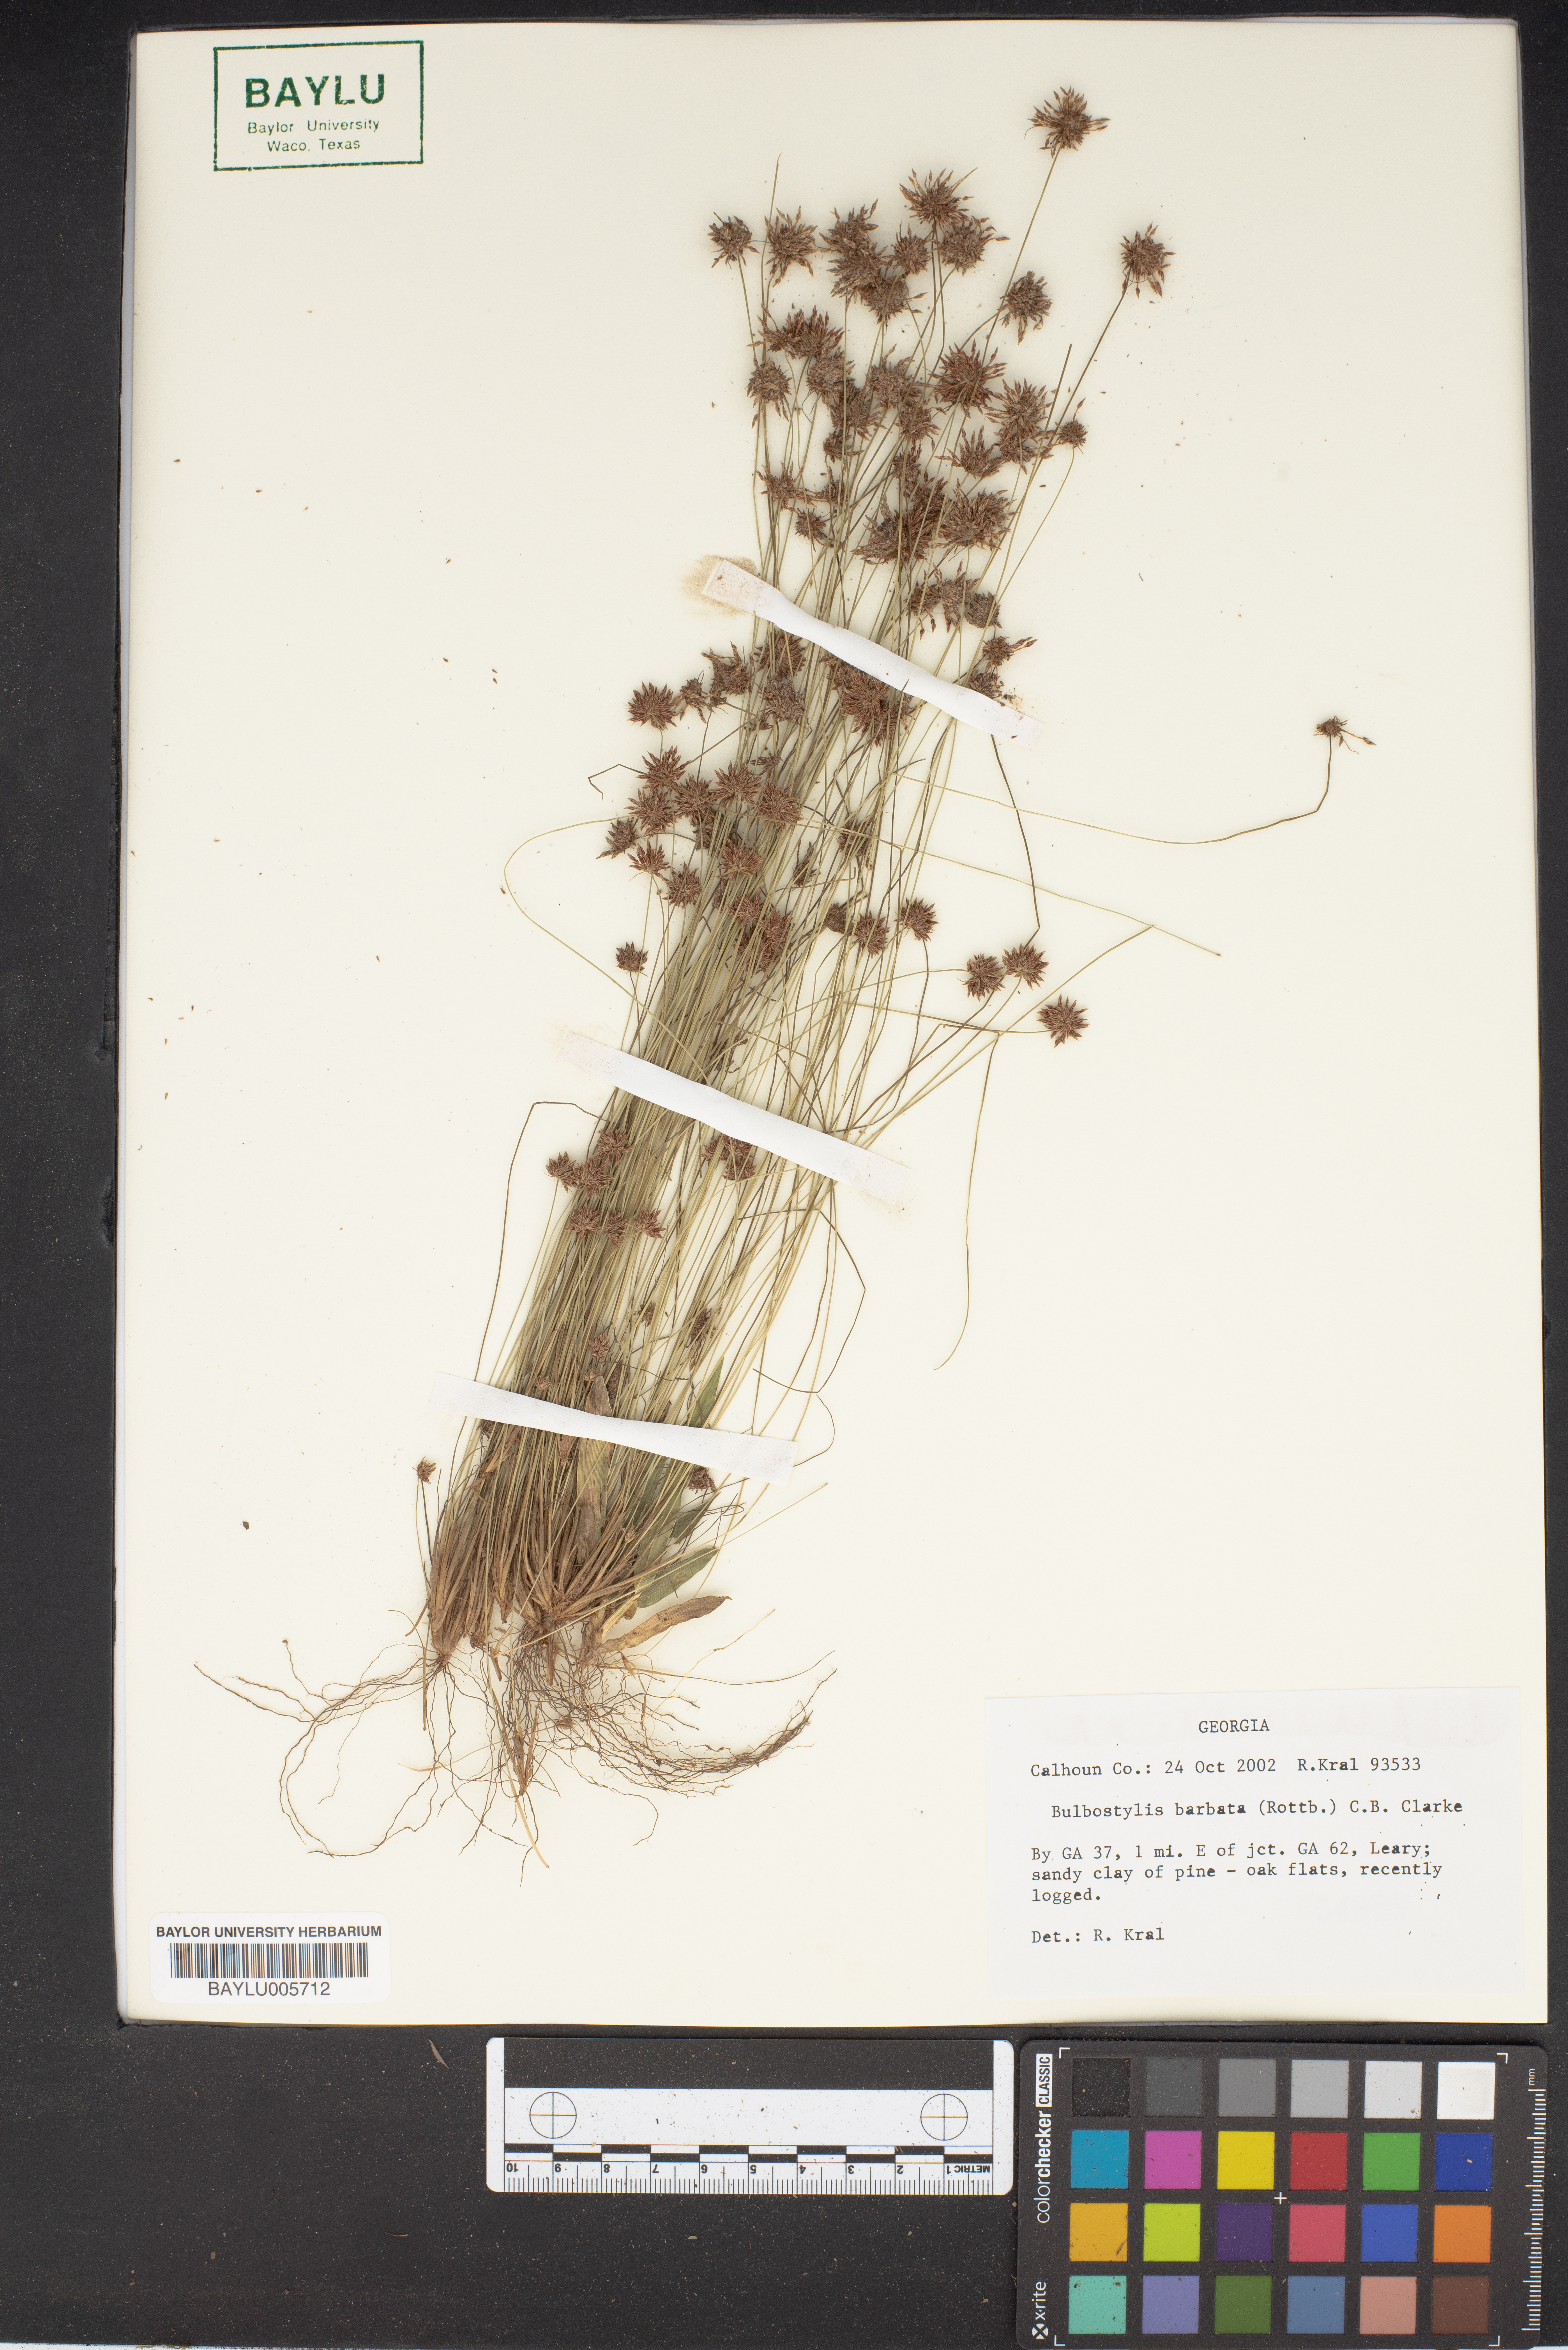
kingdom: Plantae
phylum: Tracheophyta
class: Liliopsida
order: Poales
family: Cyperaceae
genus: Bulbostylis
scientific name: Bulbostylis barbata
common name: Watergrass
